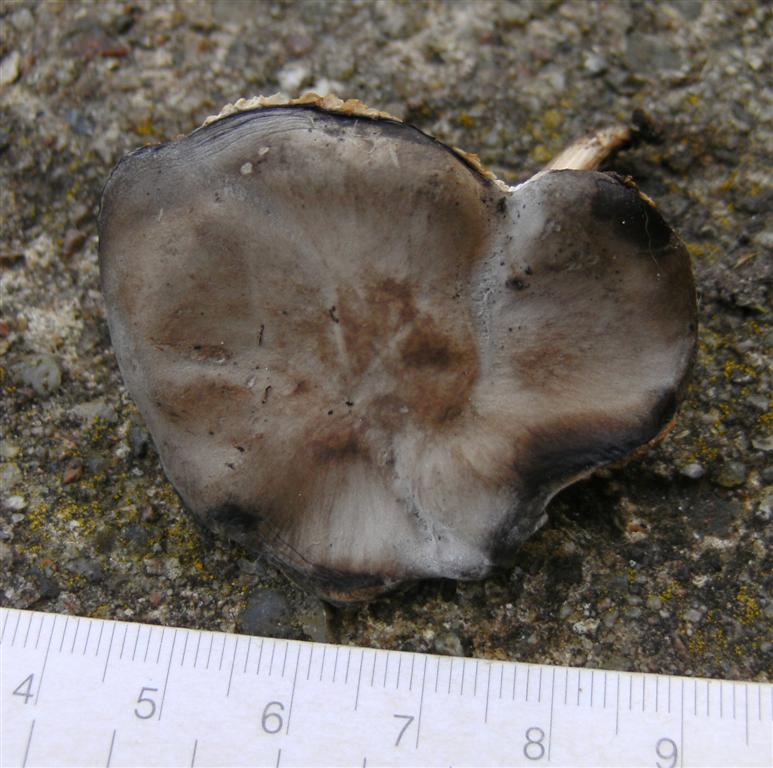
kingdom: Fungi
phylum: Basidiomycota
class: Agaricomycetes
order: Agaricales
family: Tricholomataceae
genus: Melanoleuca
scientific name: Melanoleuca polioleuca
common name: almindelig munkehat
